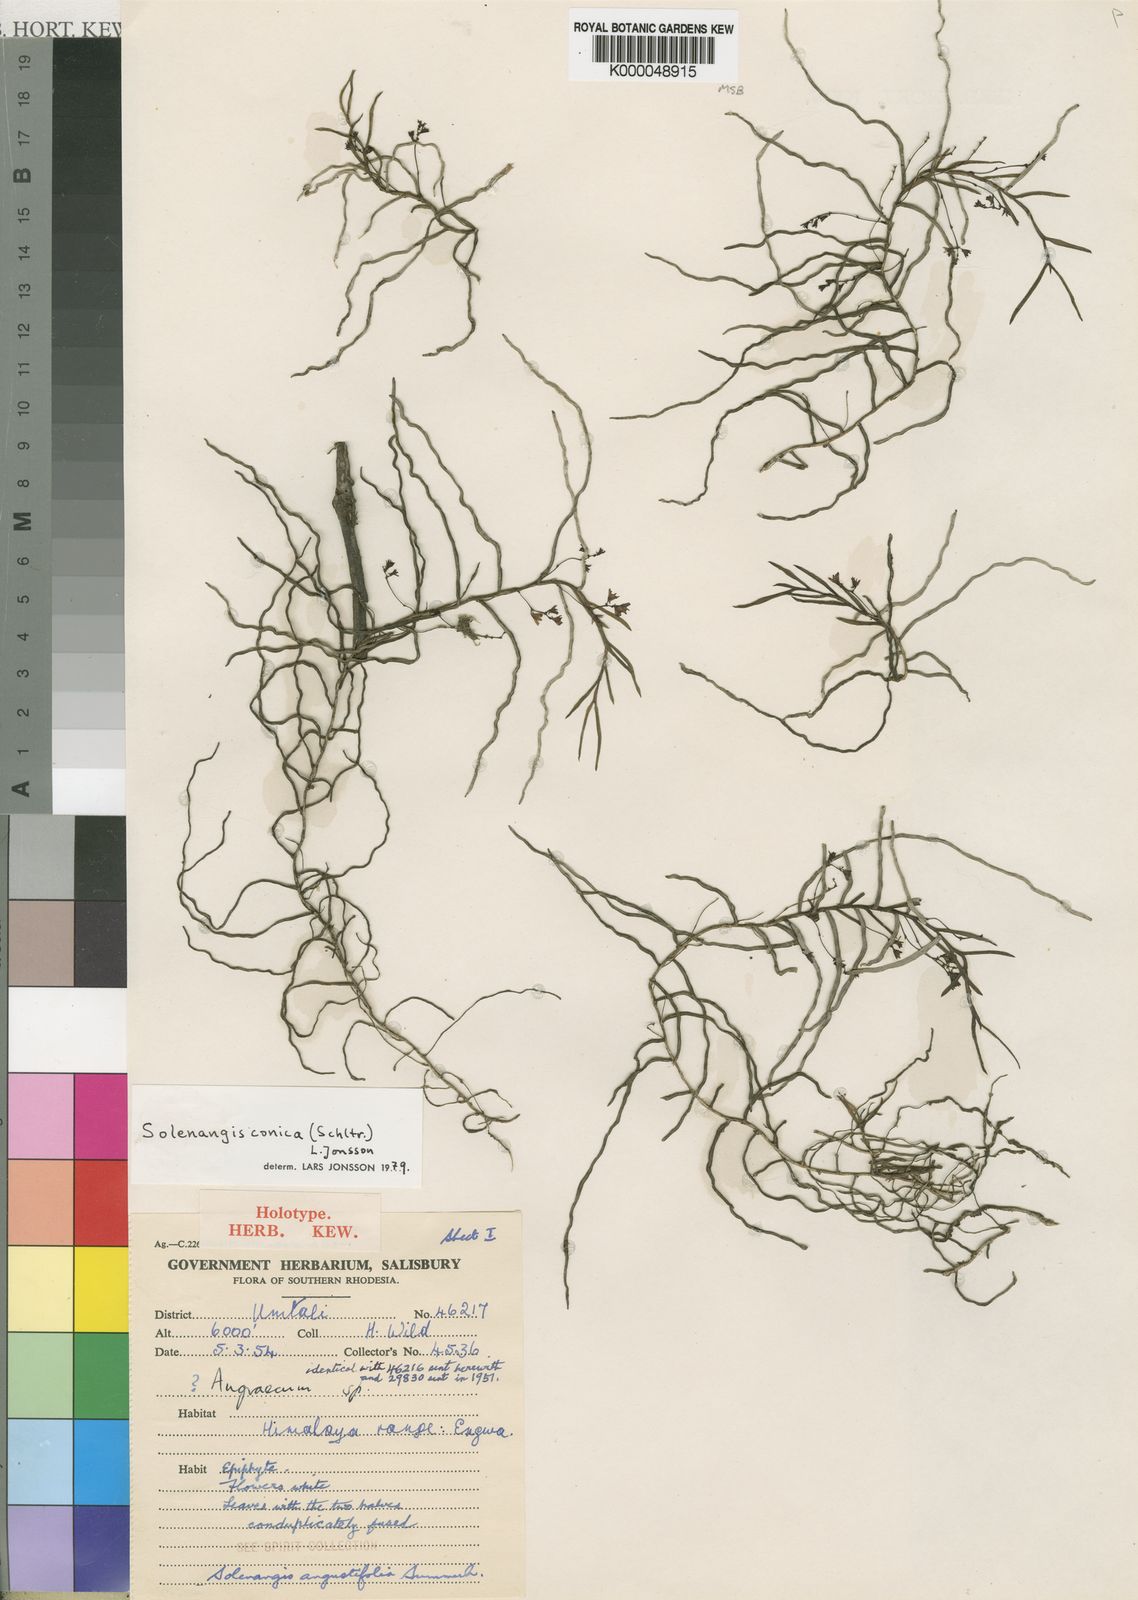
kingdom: Plantae
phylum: Tracheophyta
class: Liliopsida
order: Asparagales
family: Orchidaceae
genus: Solenangis
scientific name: Solenangis conica
